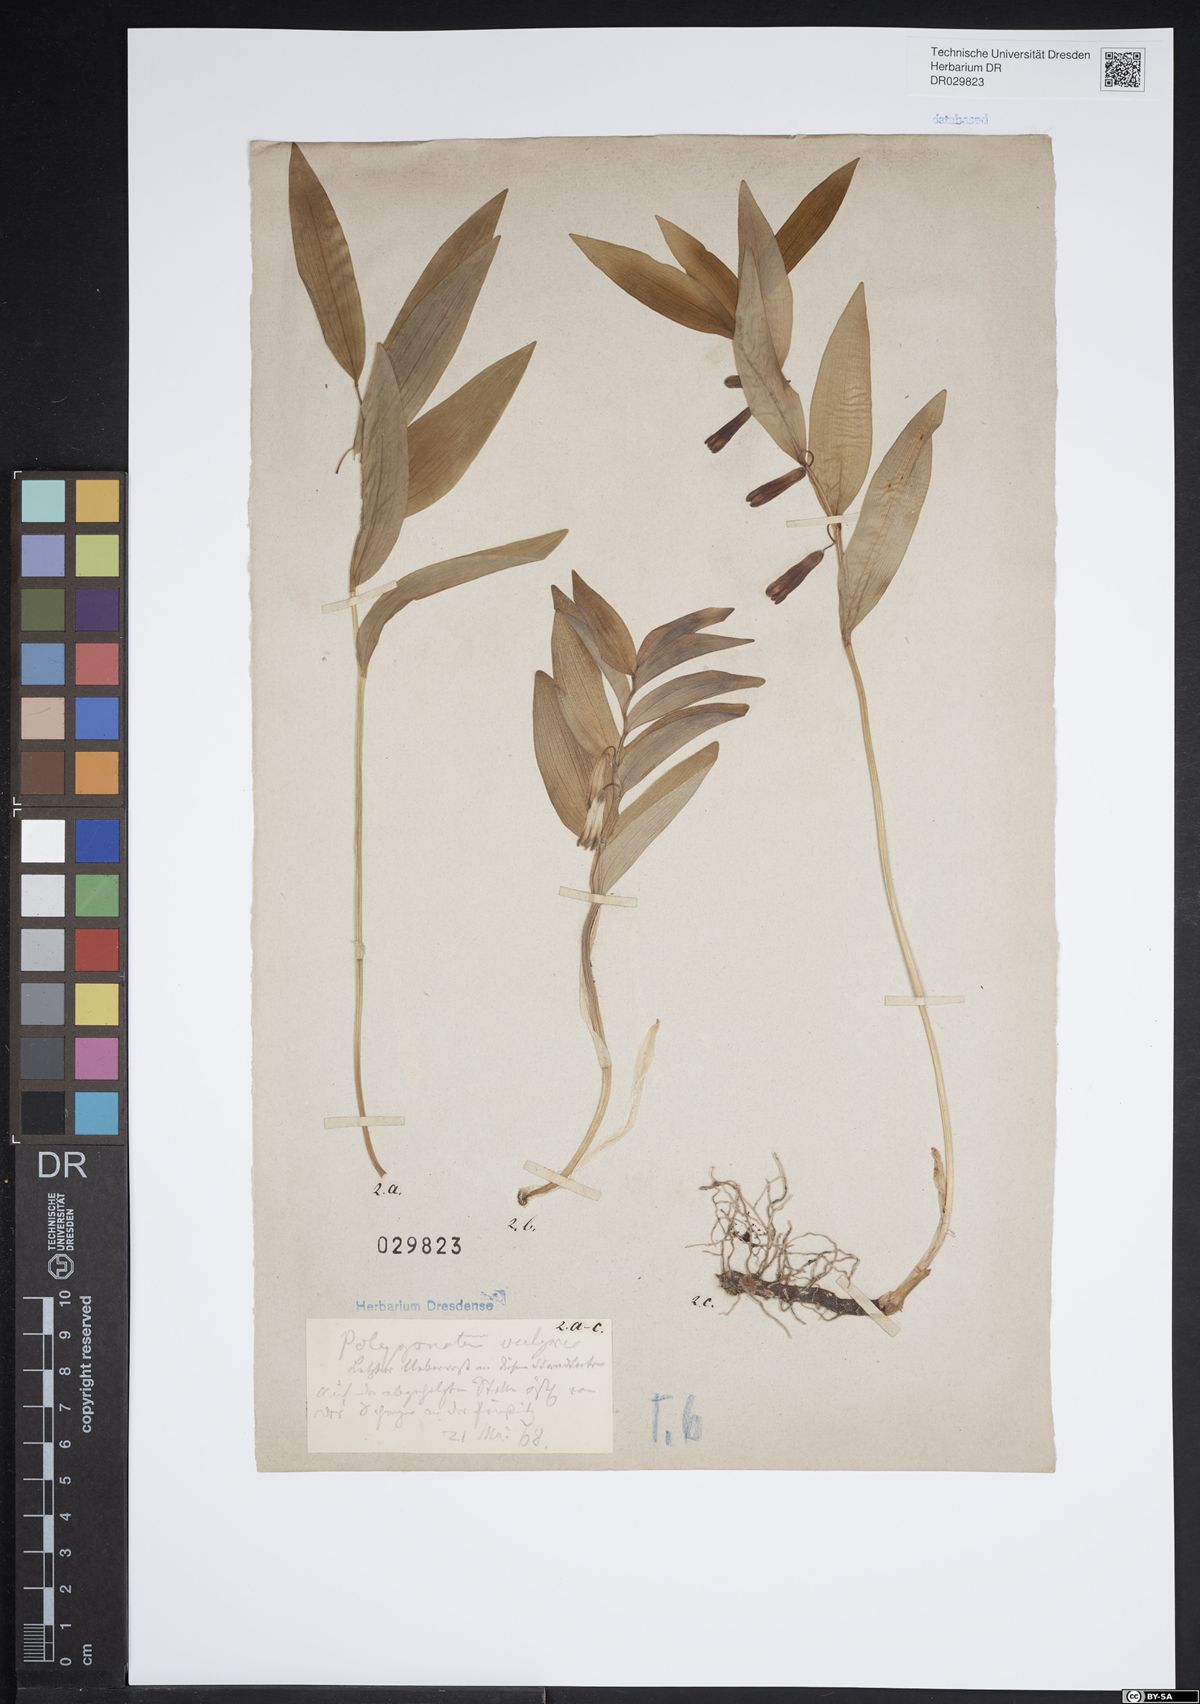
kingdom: Plantae
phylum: Tracheophyta
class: Liliopsida
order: Asparagales
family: Asparagaceae
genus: Polygonatum
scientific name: Polygonatum odoratum
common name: Angular solomon's-seal
